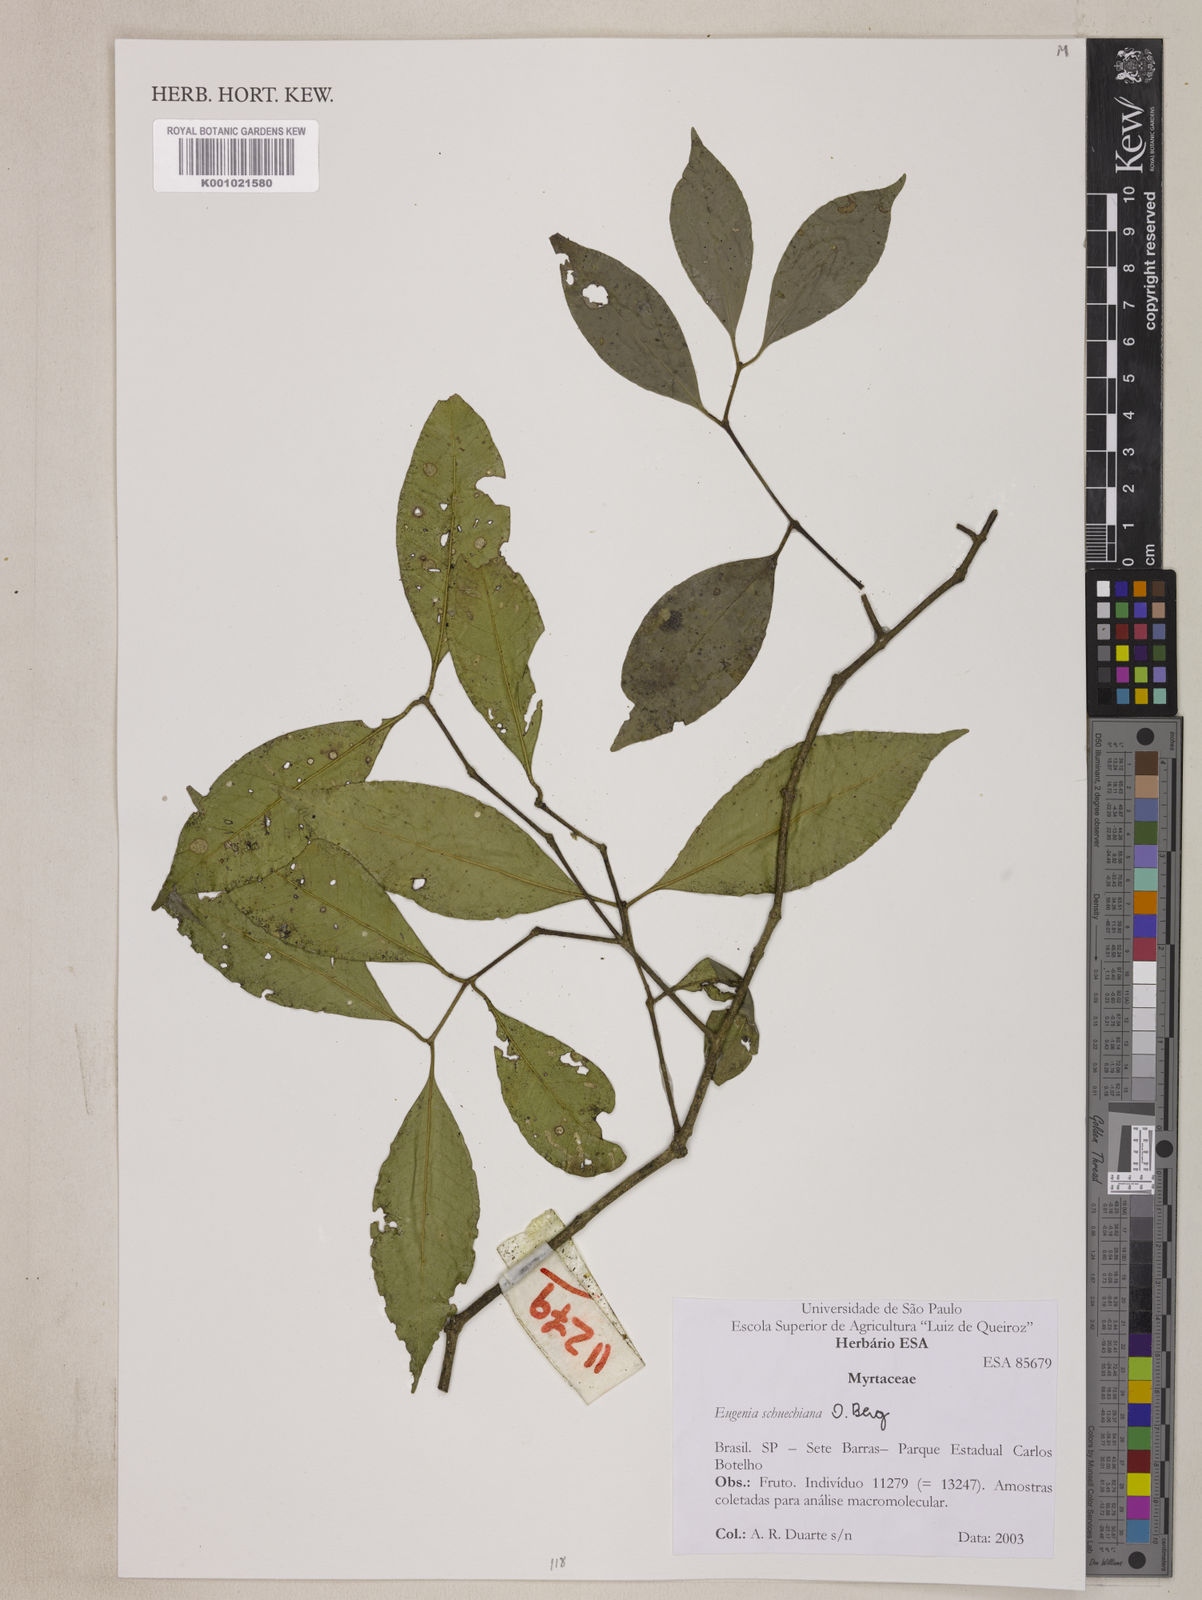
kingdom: Plantae
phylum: Tracheophyta
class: Magnoliopsida
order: Myrtales
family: Myrtaceae
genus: Eugenia
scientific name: Eugenia verticillata
